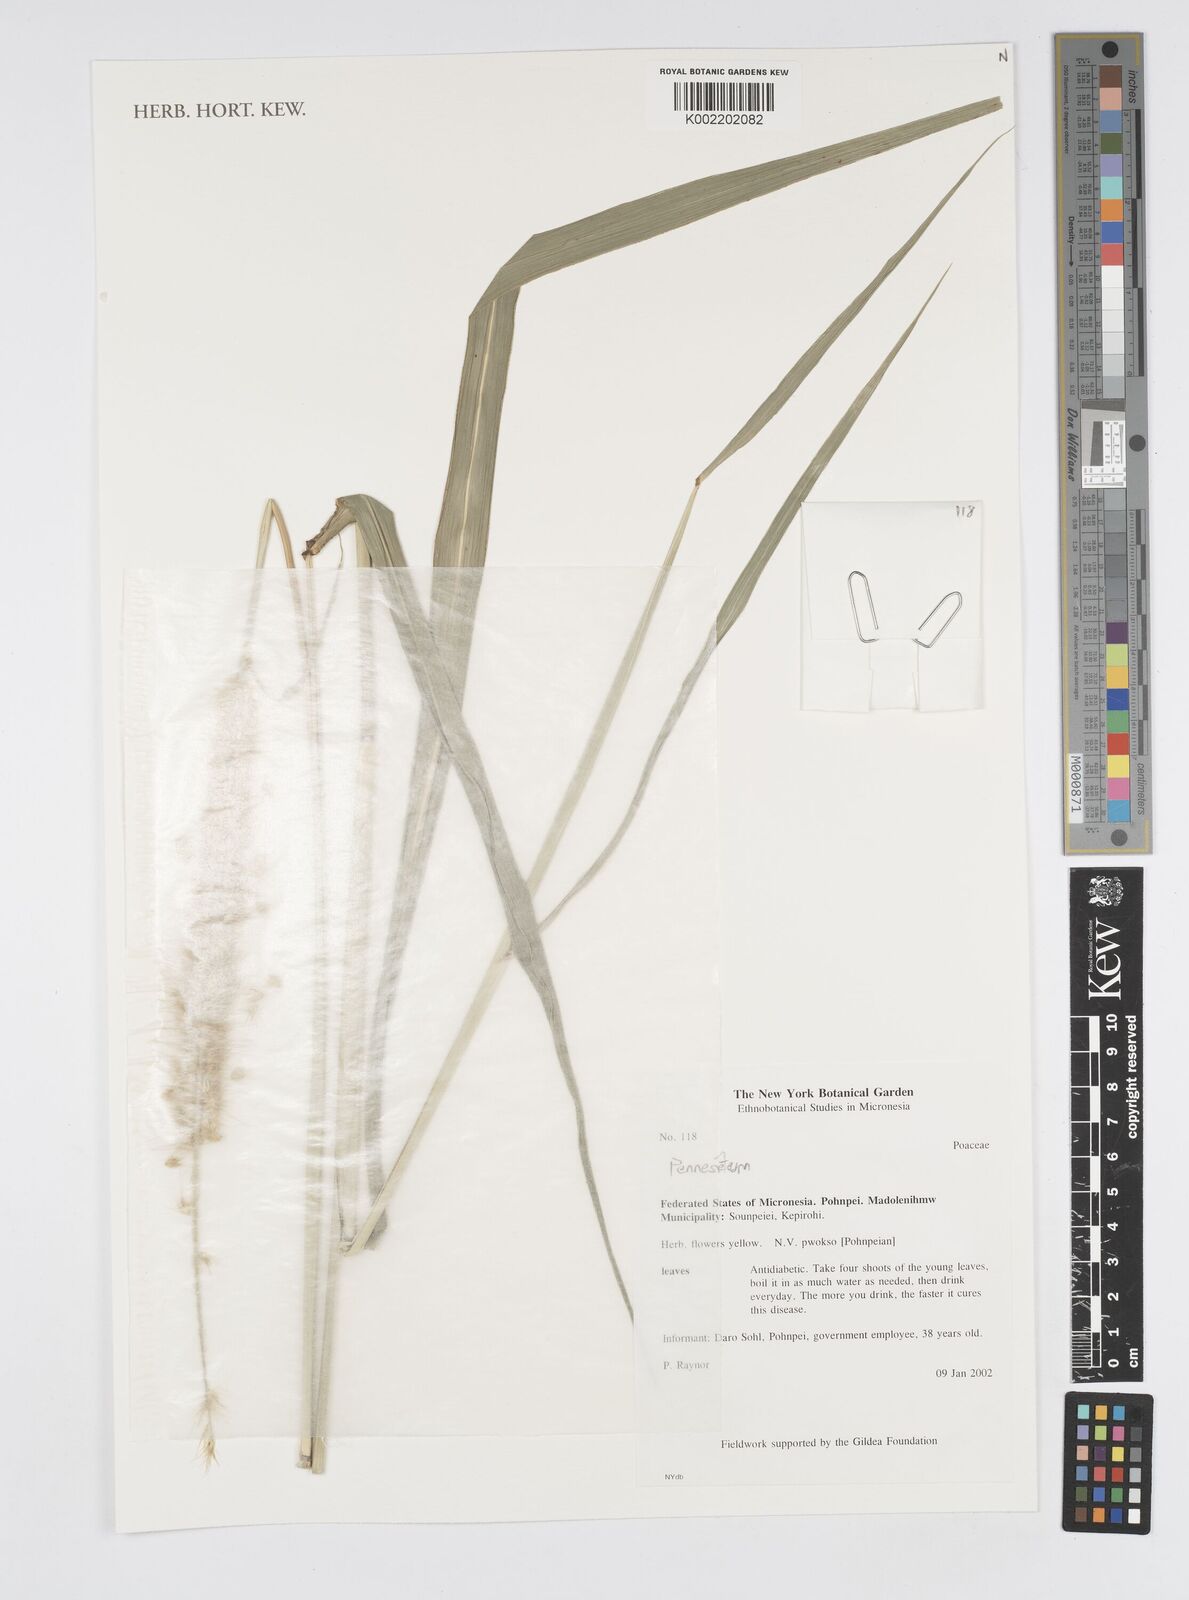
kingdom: Plantae
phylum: Tracheophyta
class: Liliopsida
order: Poales
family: Poaceae
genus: Cenchrus
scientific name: Cenchrus Pennisetum spec
